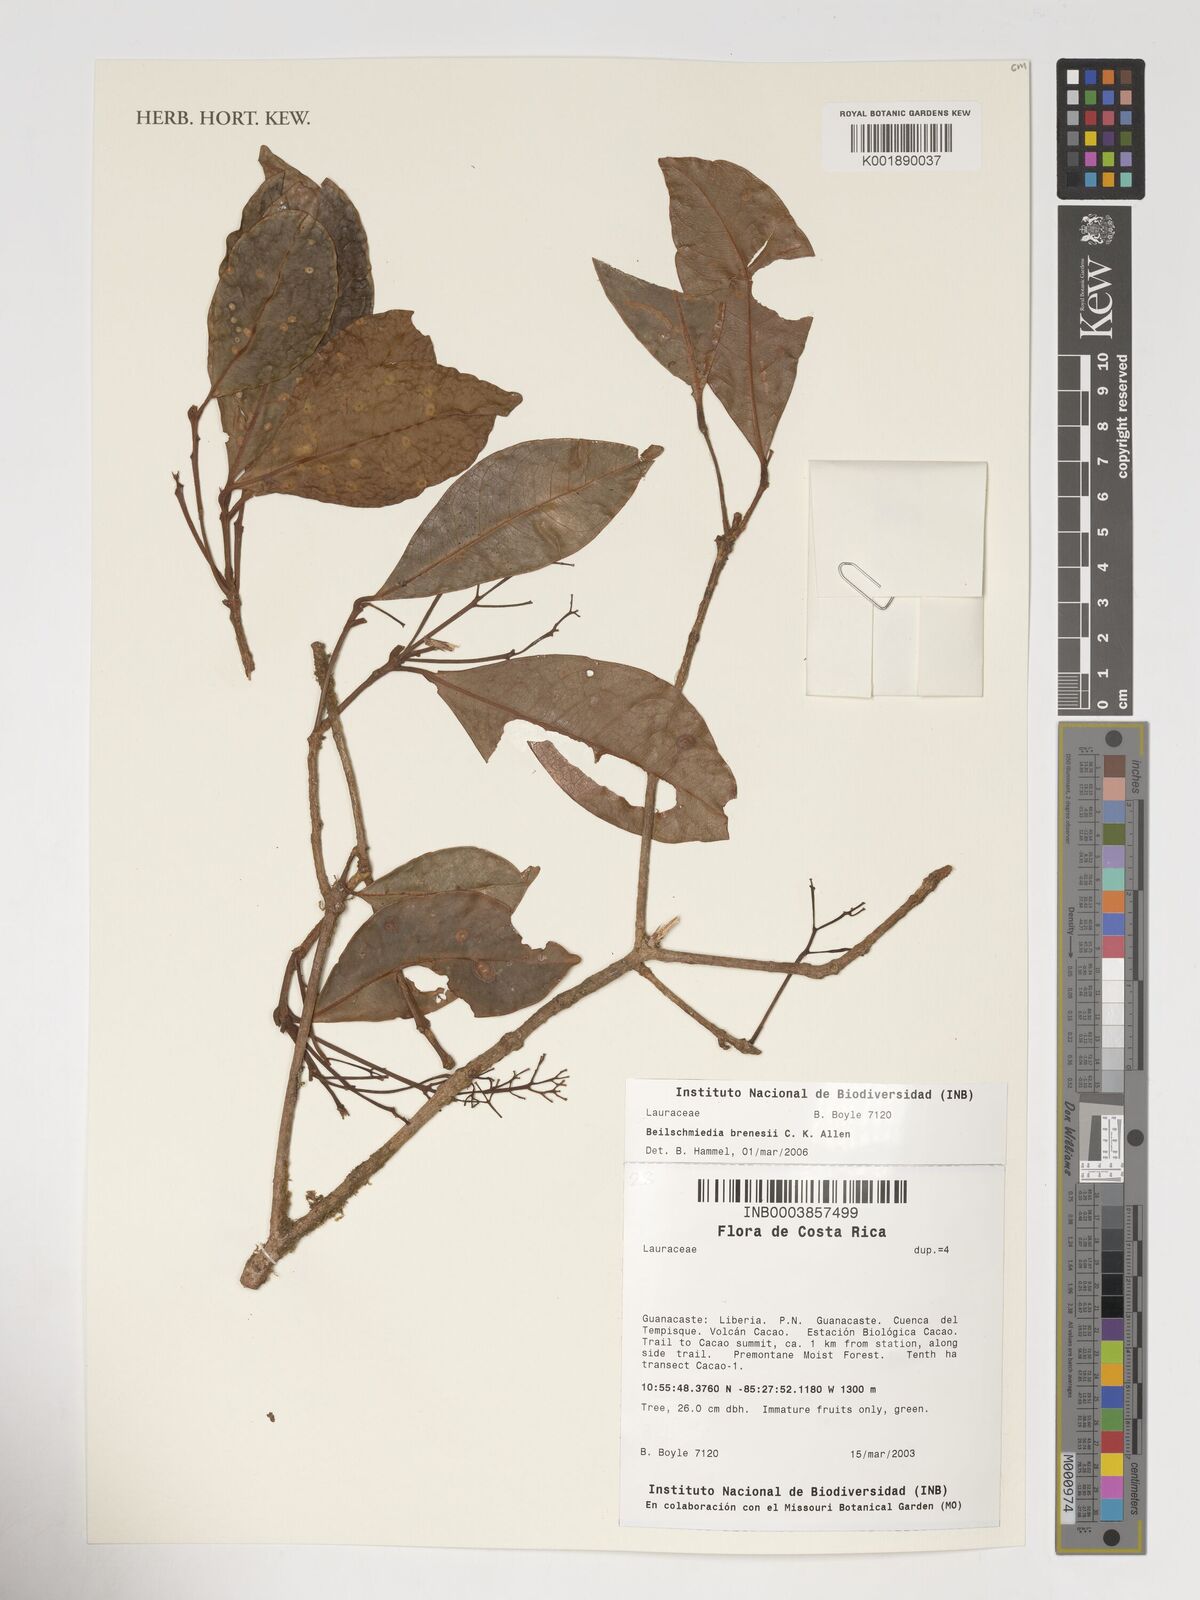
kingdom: Plantae
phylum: Tracheophyta
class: Magnoliopsida
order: Laurales
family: Lauraceae
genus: Beilschmiedia
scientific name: Beilschmiedia brenesii
